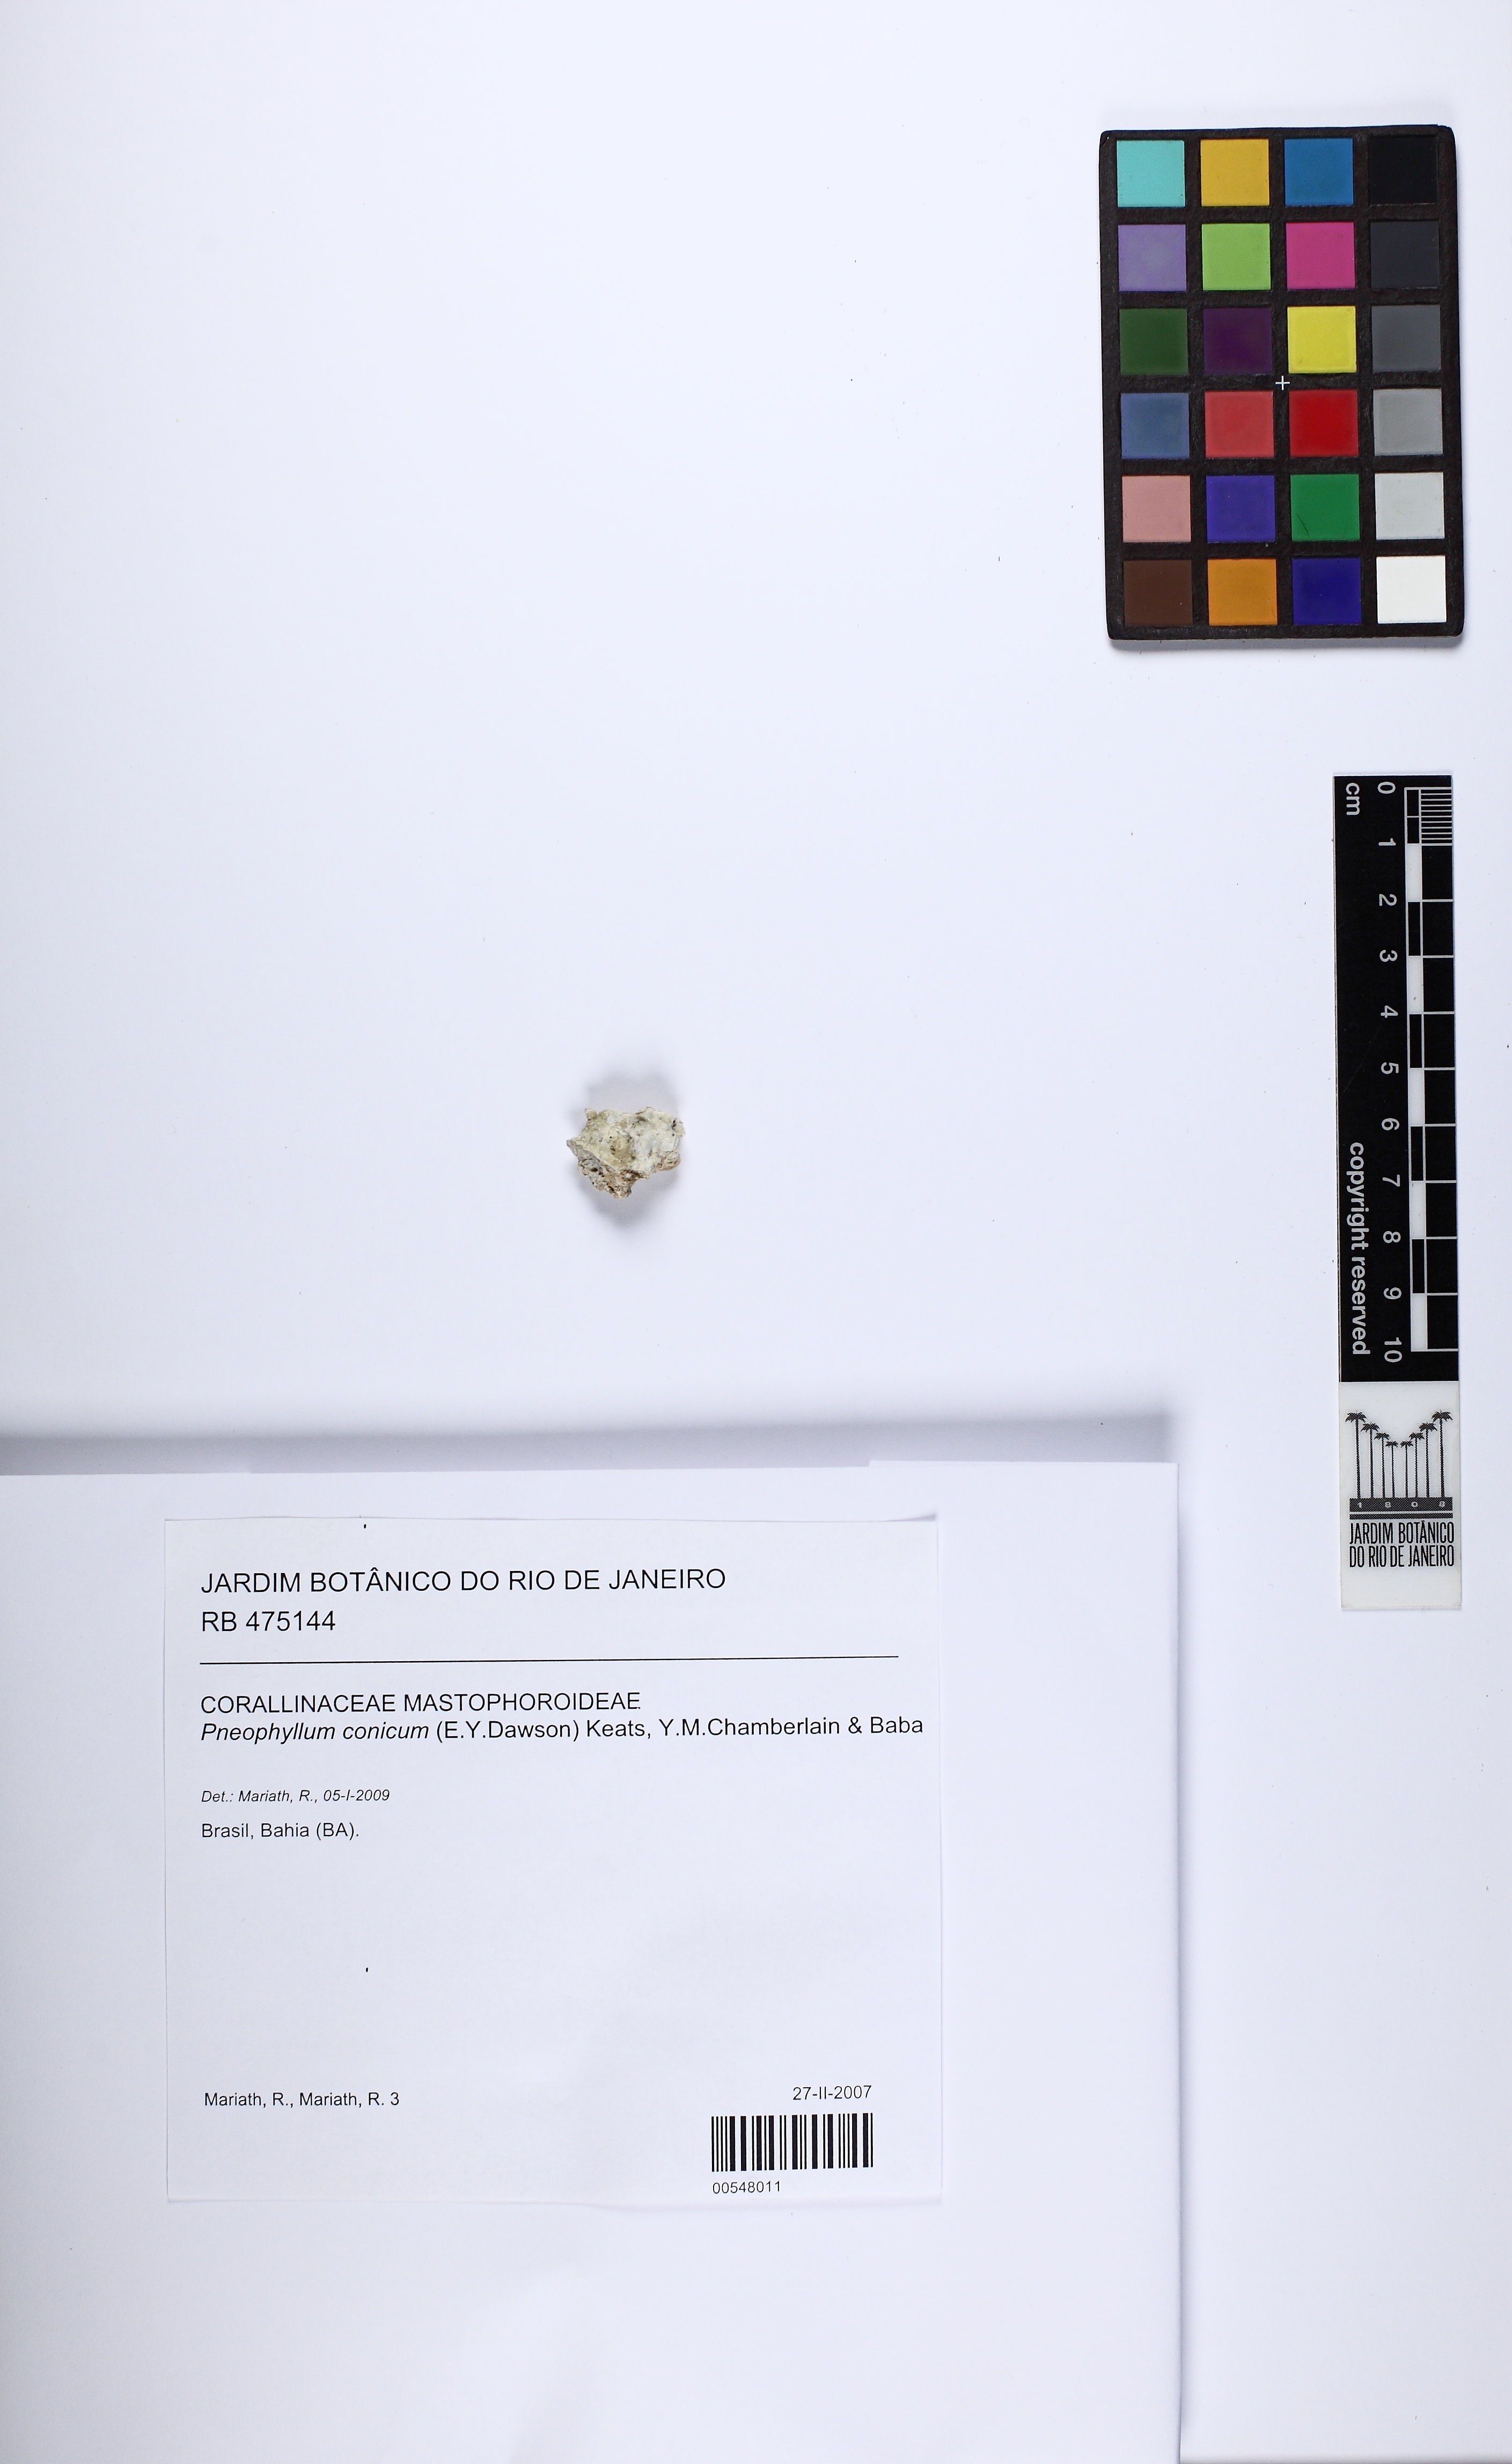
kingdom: Plantae
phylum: Rhodophyta
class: Florideophyceae
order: Corallinales
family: Corallinaceae
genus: Pneophyllum
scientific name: Pneophyllum conicum
